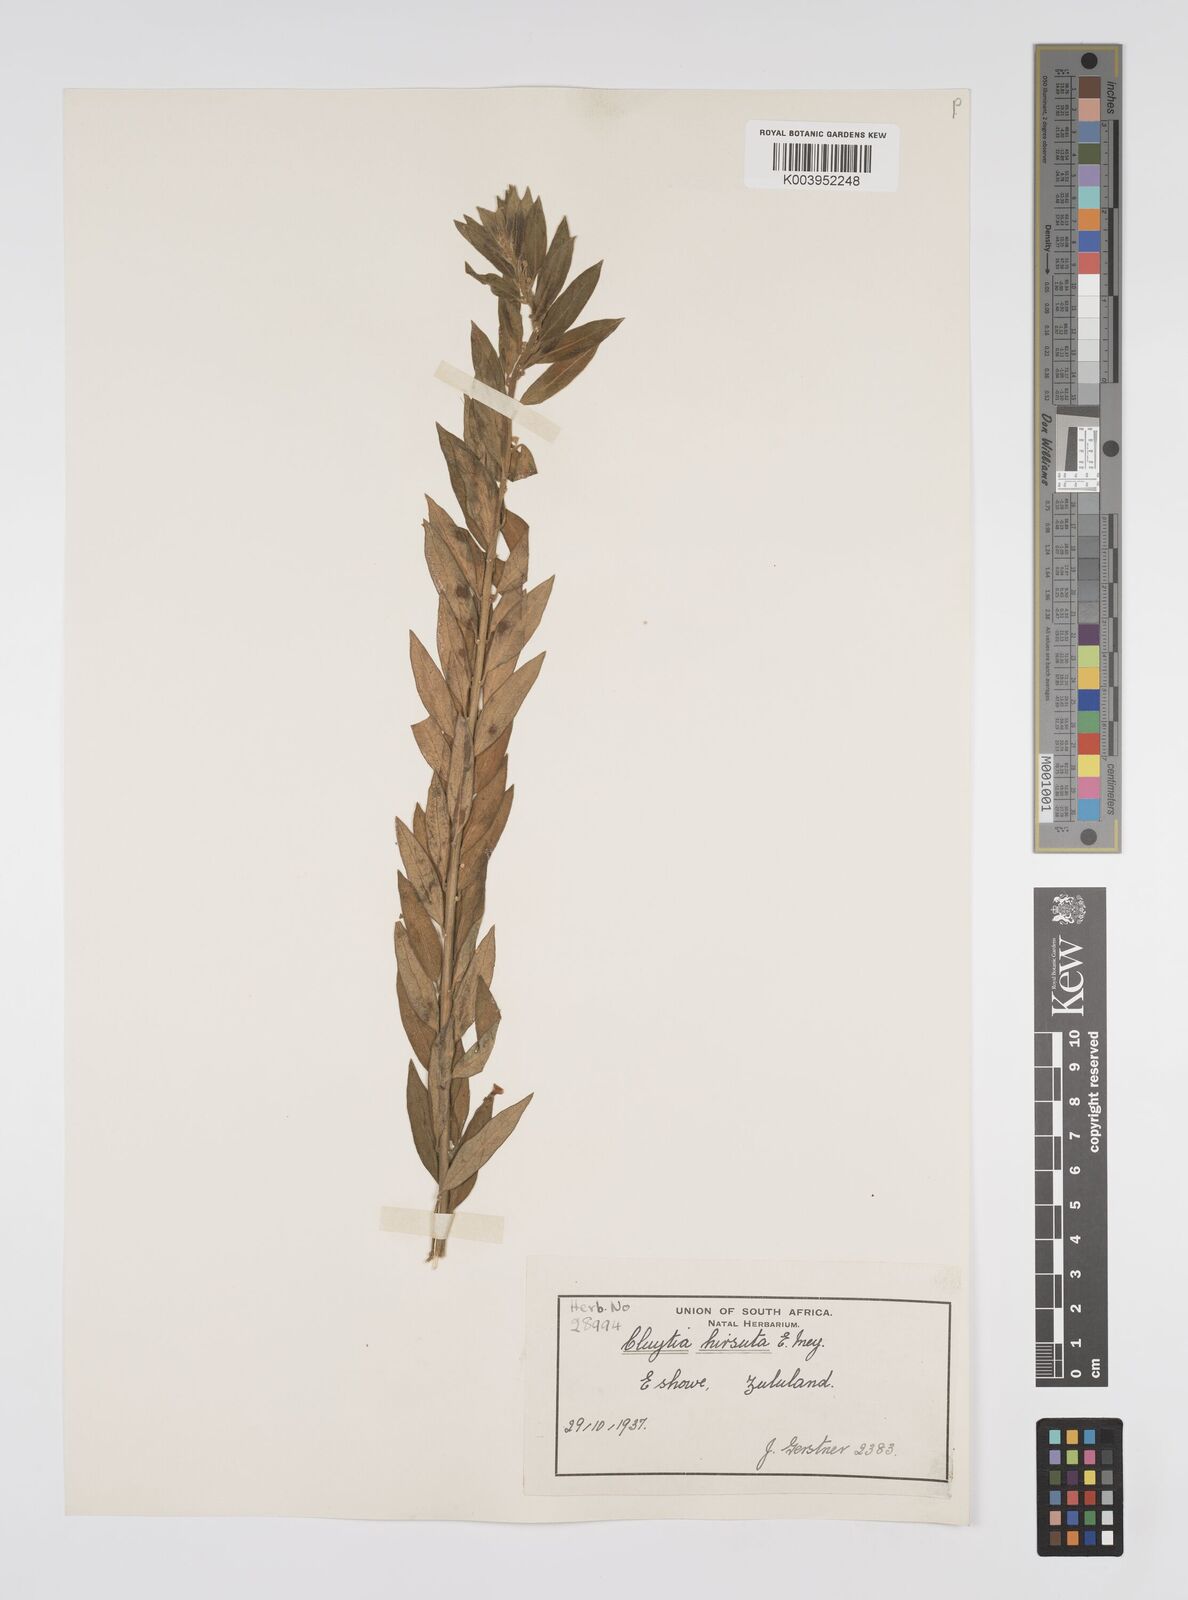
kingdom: Plantae
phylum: Tracheophyta
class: Magnoliopsida
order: Malpighiales
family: Peraceae
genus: Clutia
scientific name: Clutia affinis
